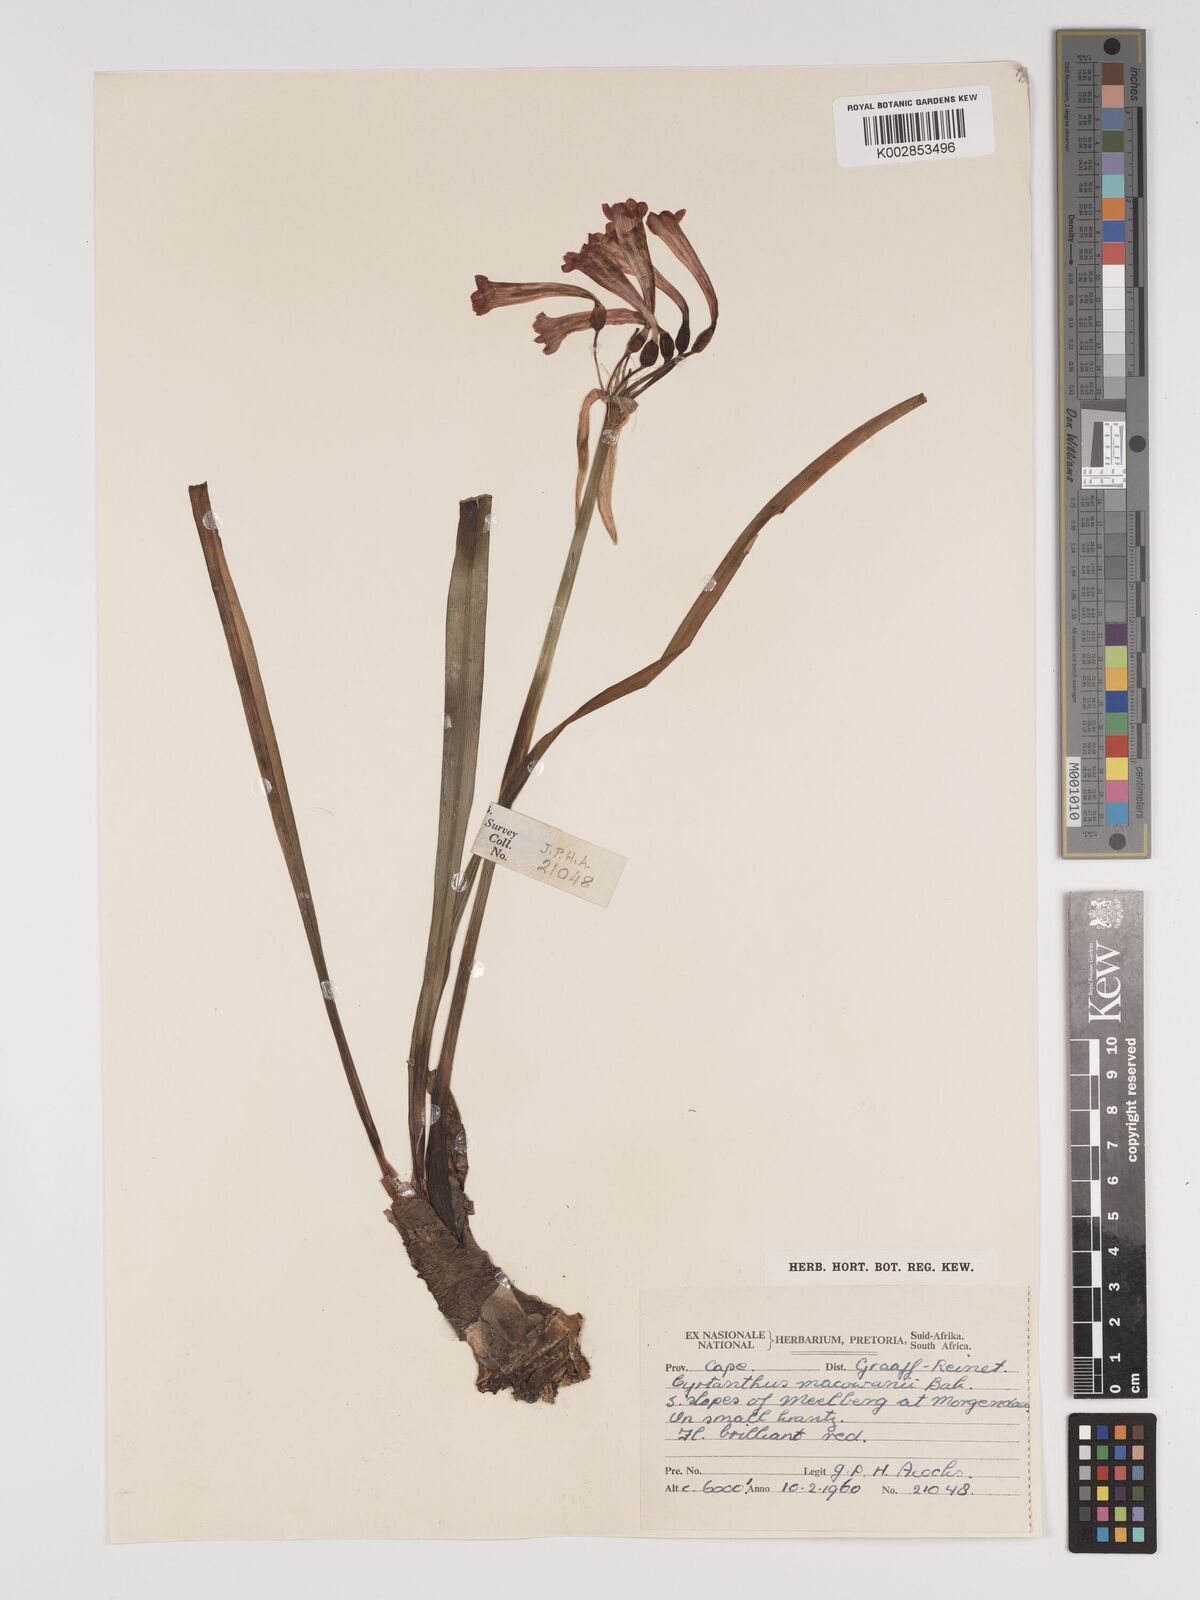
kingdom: Plantae
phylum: Tracheophyta
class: Liliopsida
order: Asparagales
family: Amaryllidaceae
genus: Cyrtanthus
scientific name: Cyrtanthus macowanii
